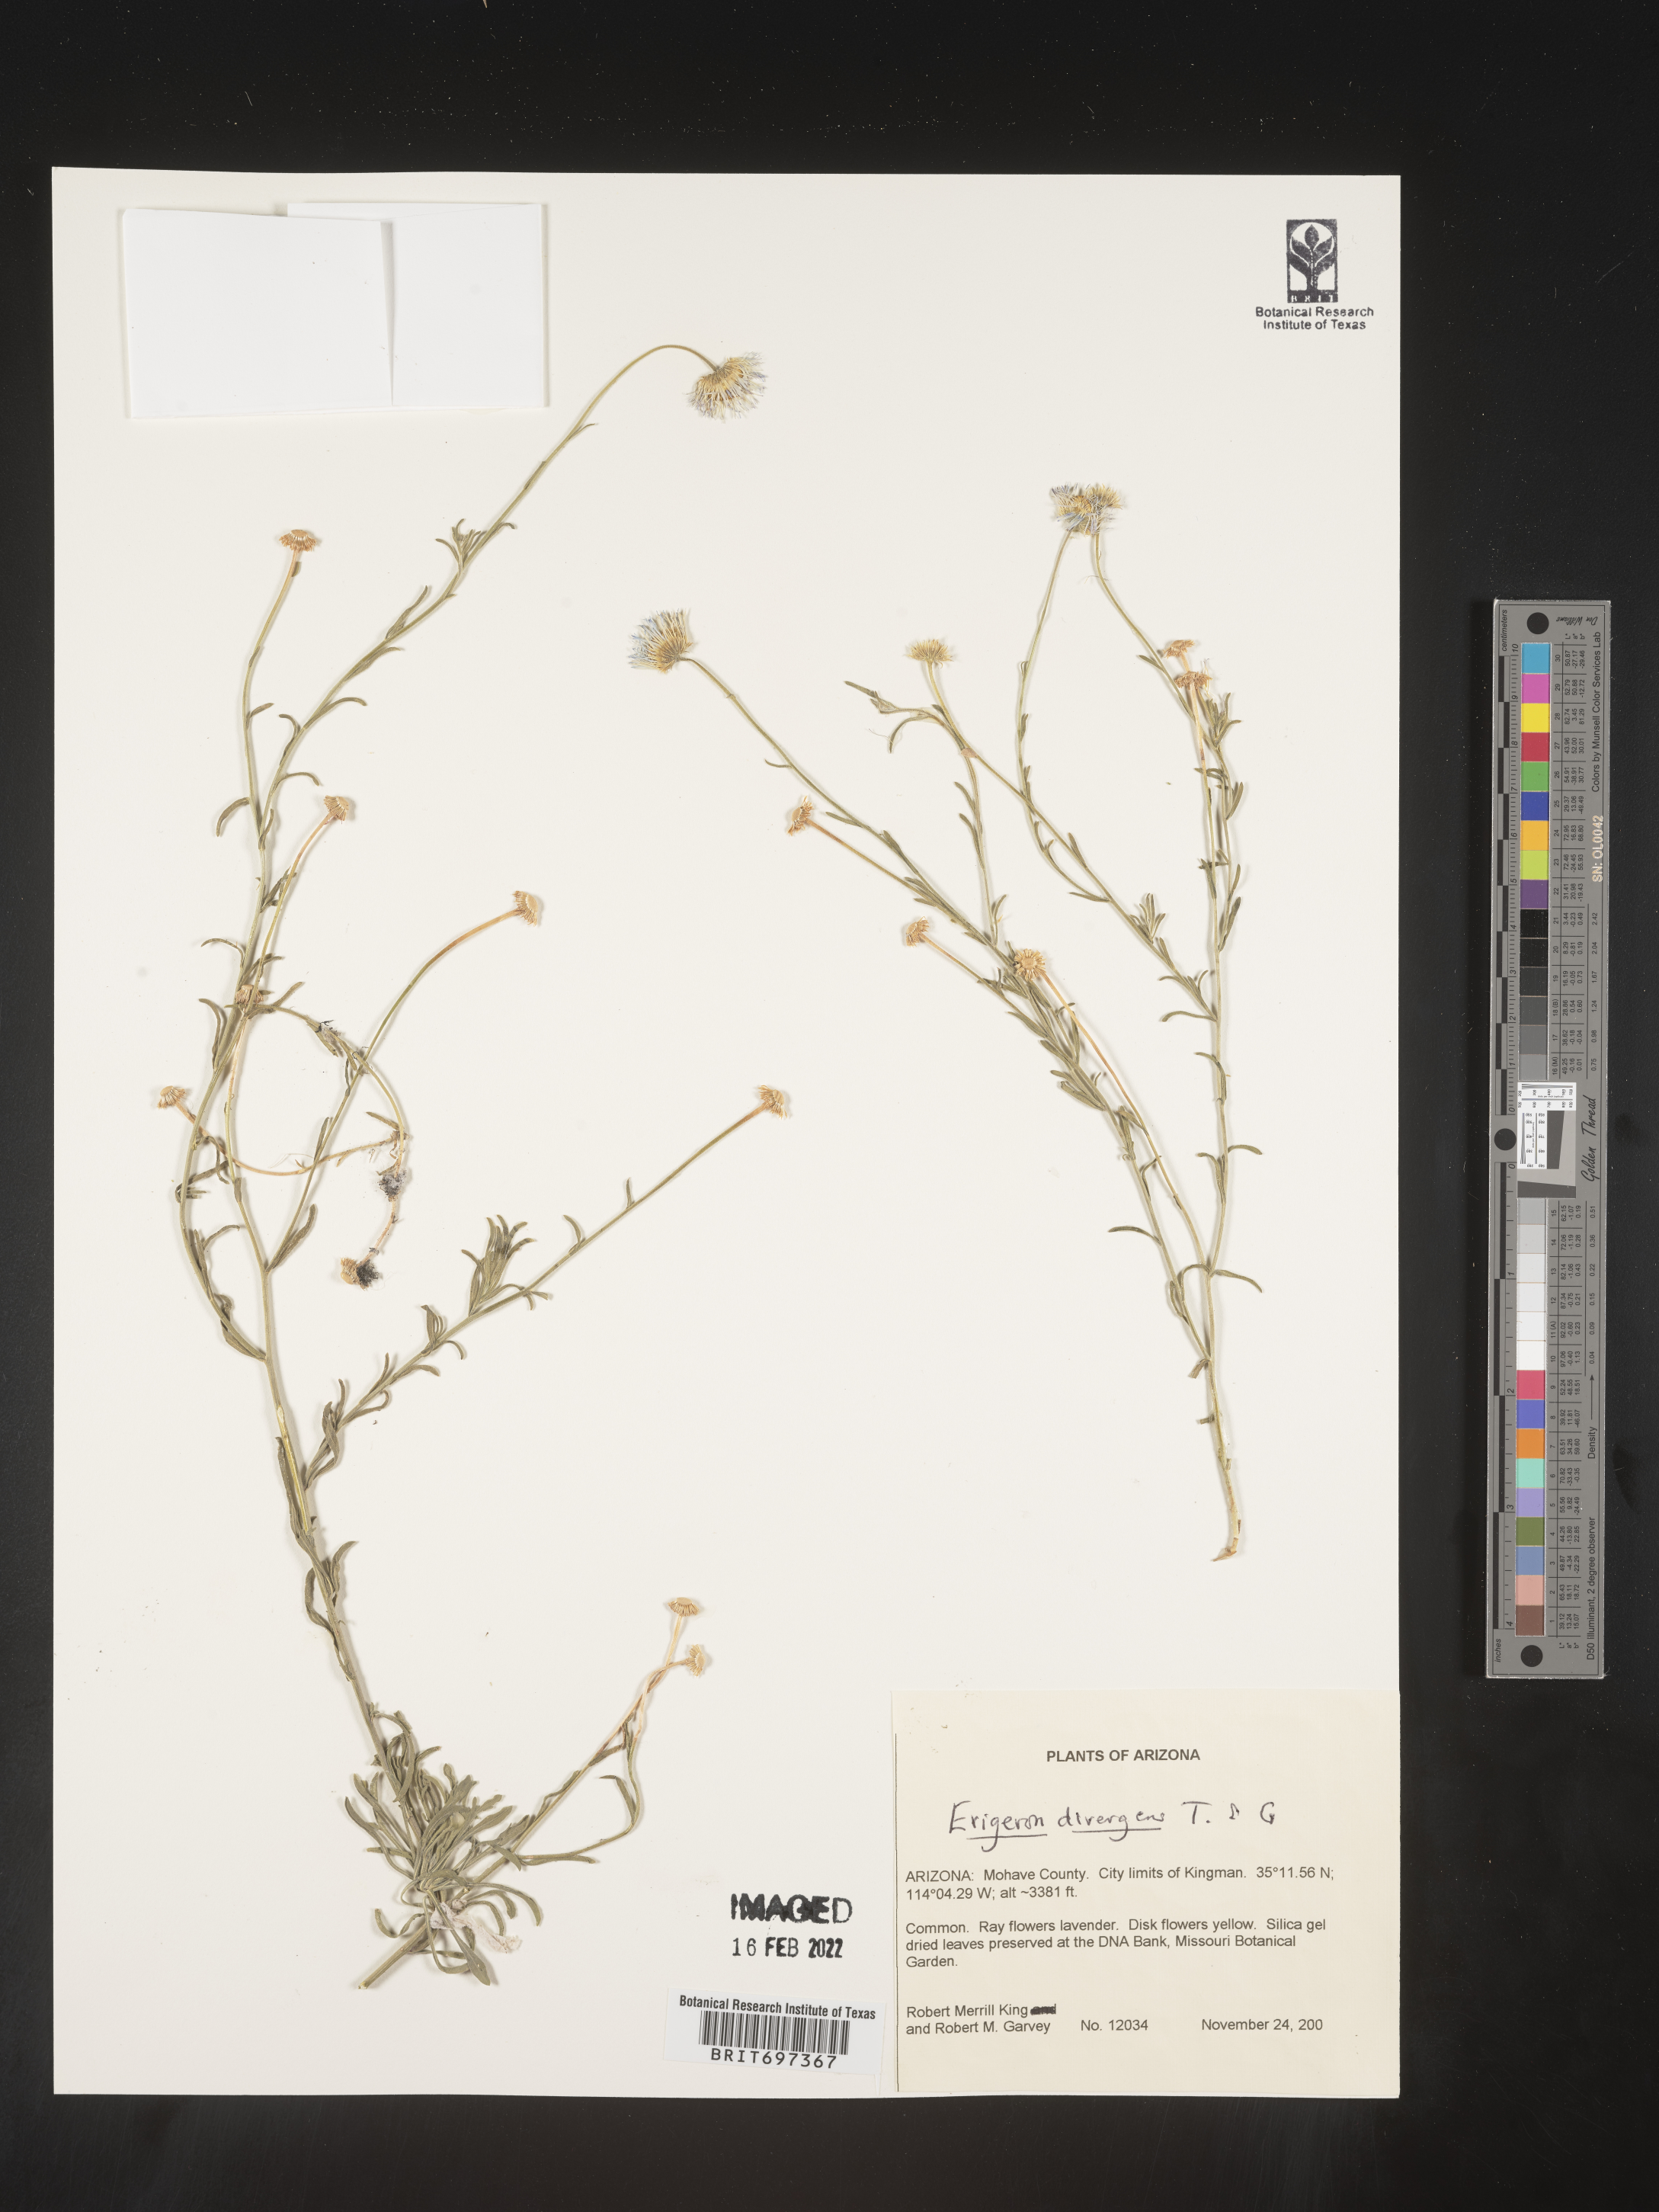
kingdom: Plantae
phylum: Tracheophyta
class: Magnoliopsida
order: Asterales
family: Asteraceae
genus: Erigeron
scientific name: Erigeron divergens
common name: Diffuse fleabane
